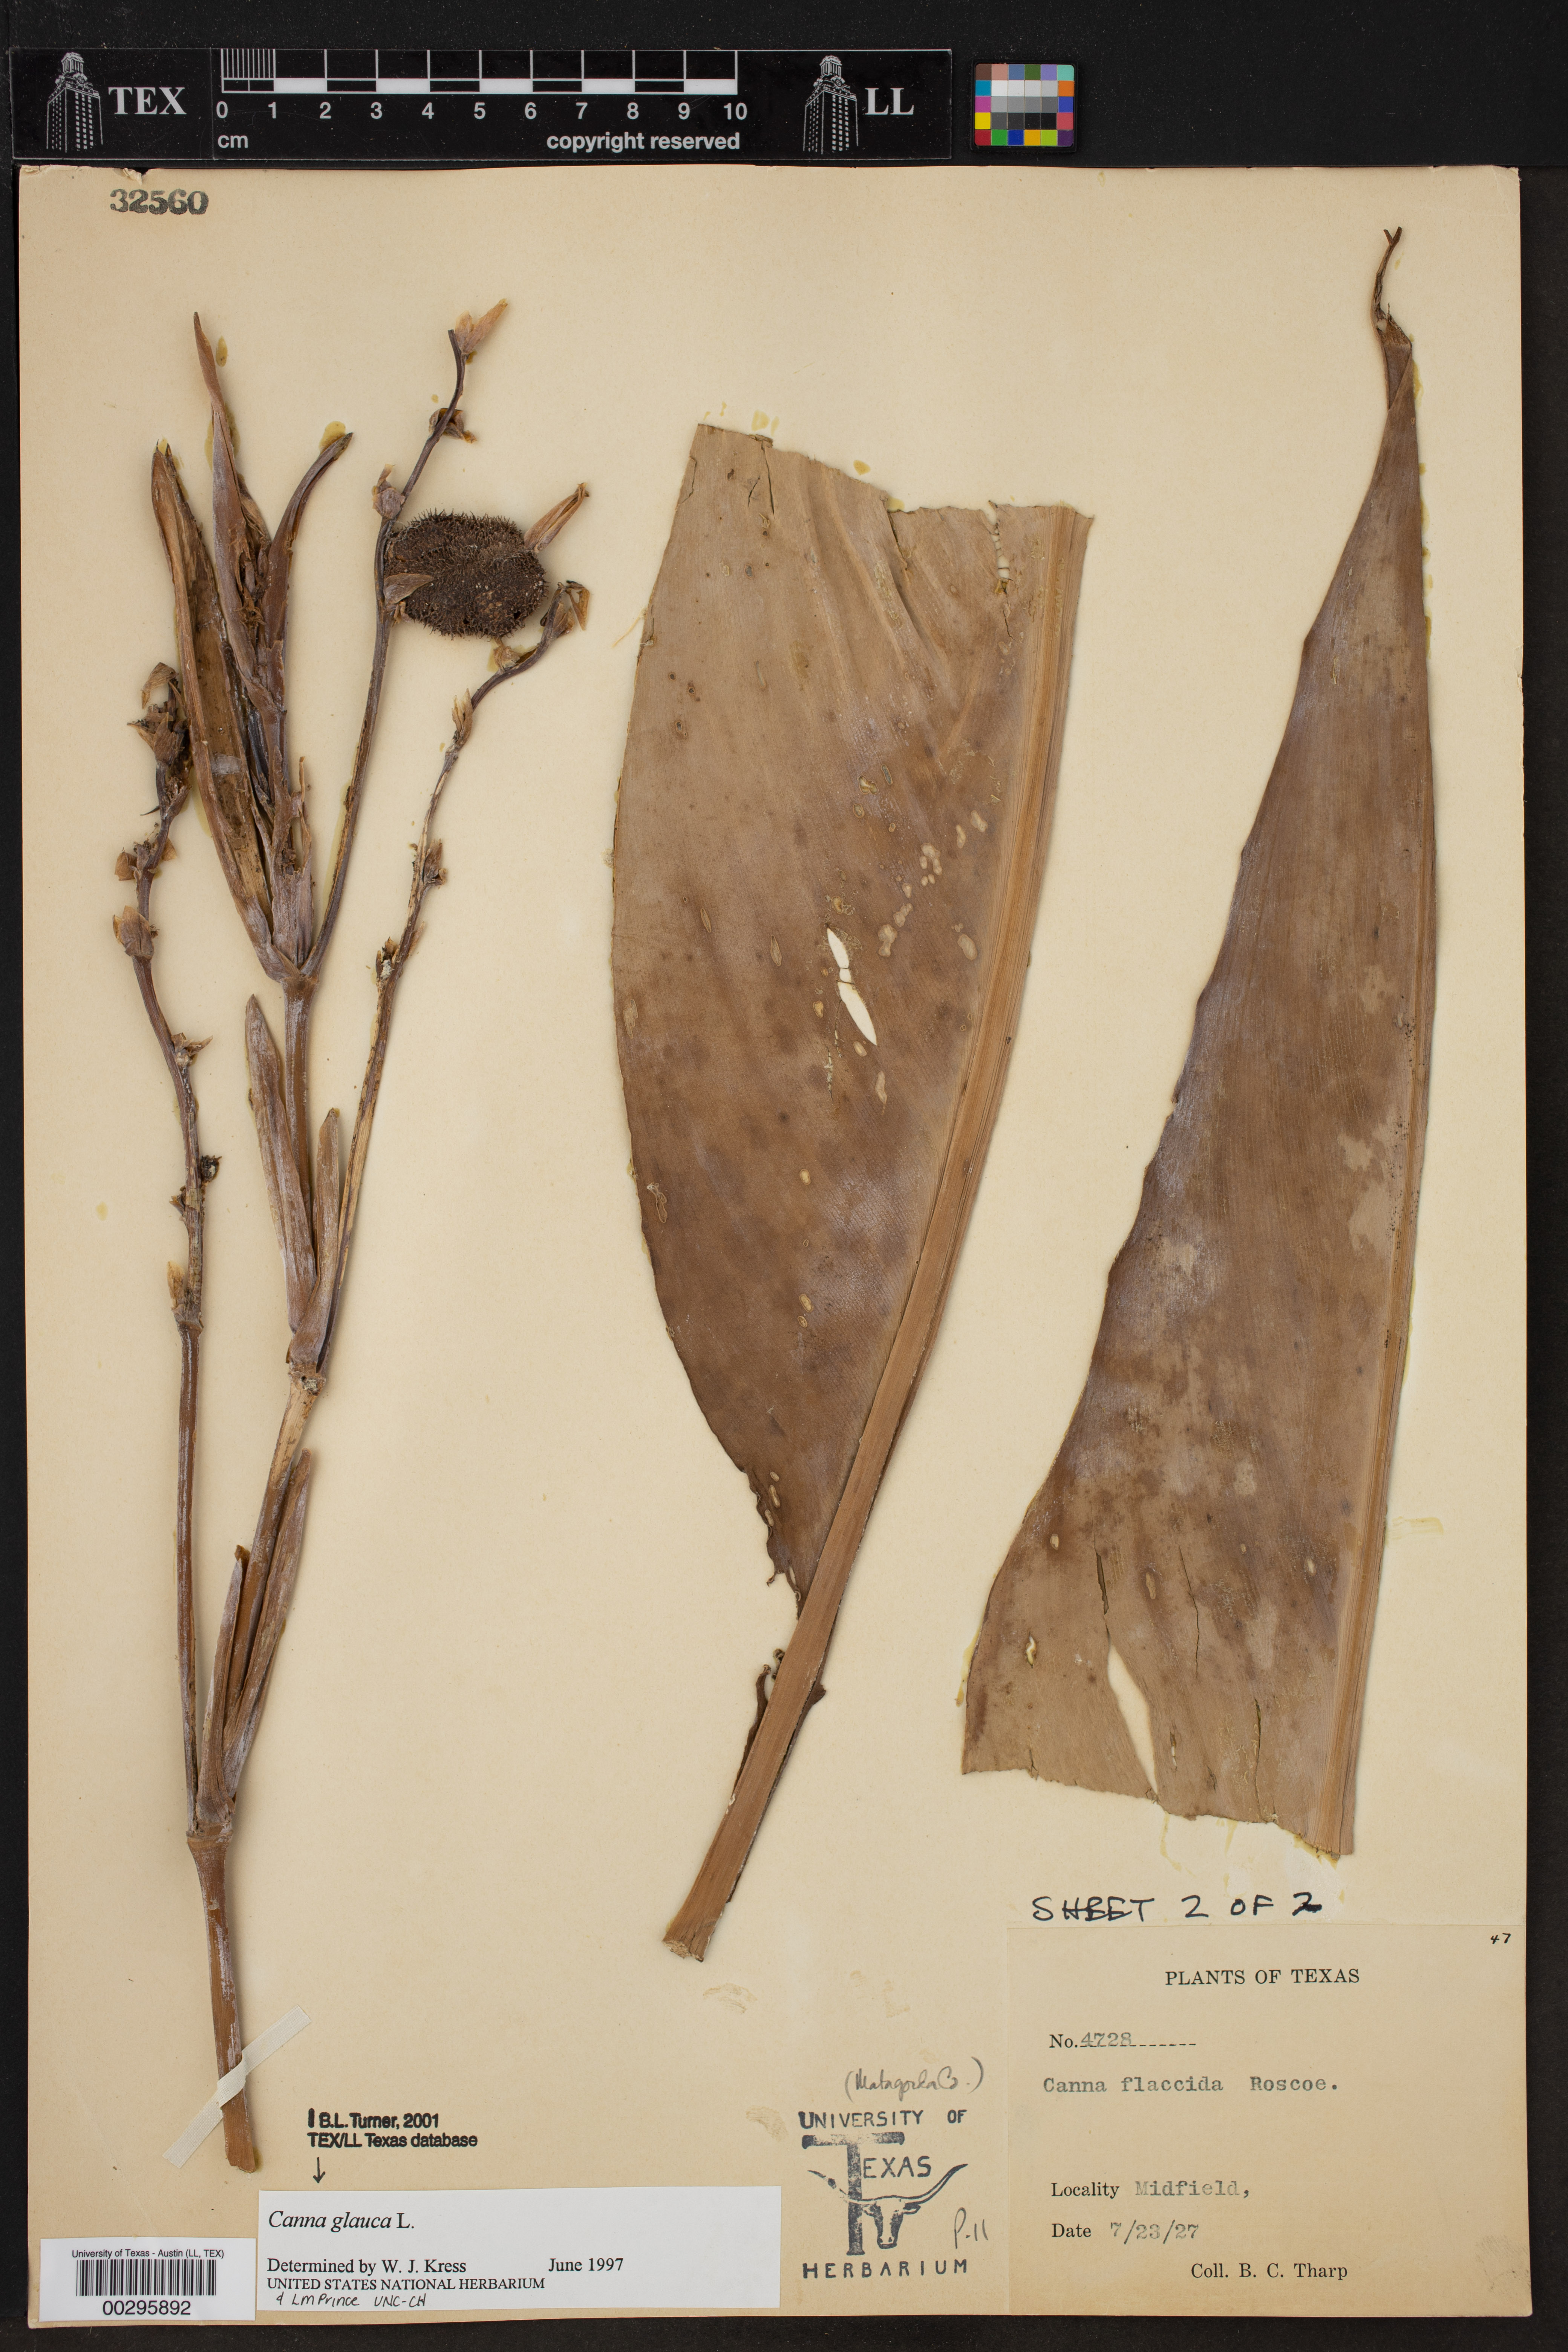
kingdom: Plantae
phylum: Tracheophyta
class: Liliopsida
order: Zingiberales
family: Cannaceae
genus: Canna
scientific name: Canna glauca
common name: Louisiana canna
